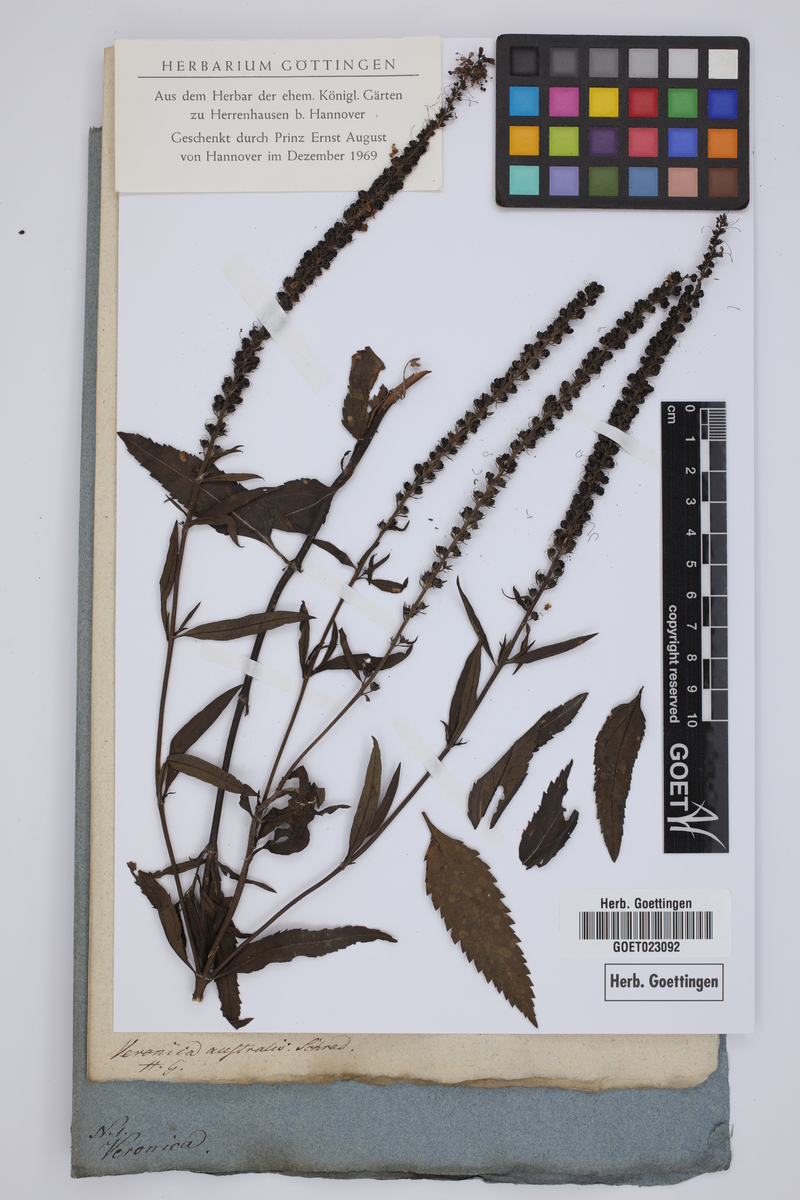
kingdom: Plantae
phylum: Tracheophyta
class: Magnoliopsida
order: Lamiales
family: Plantaginaceae
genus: Veronica
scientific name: Veronica spicata
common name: Spiked speedwell
